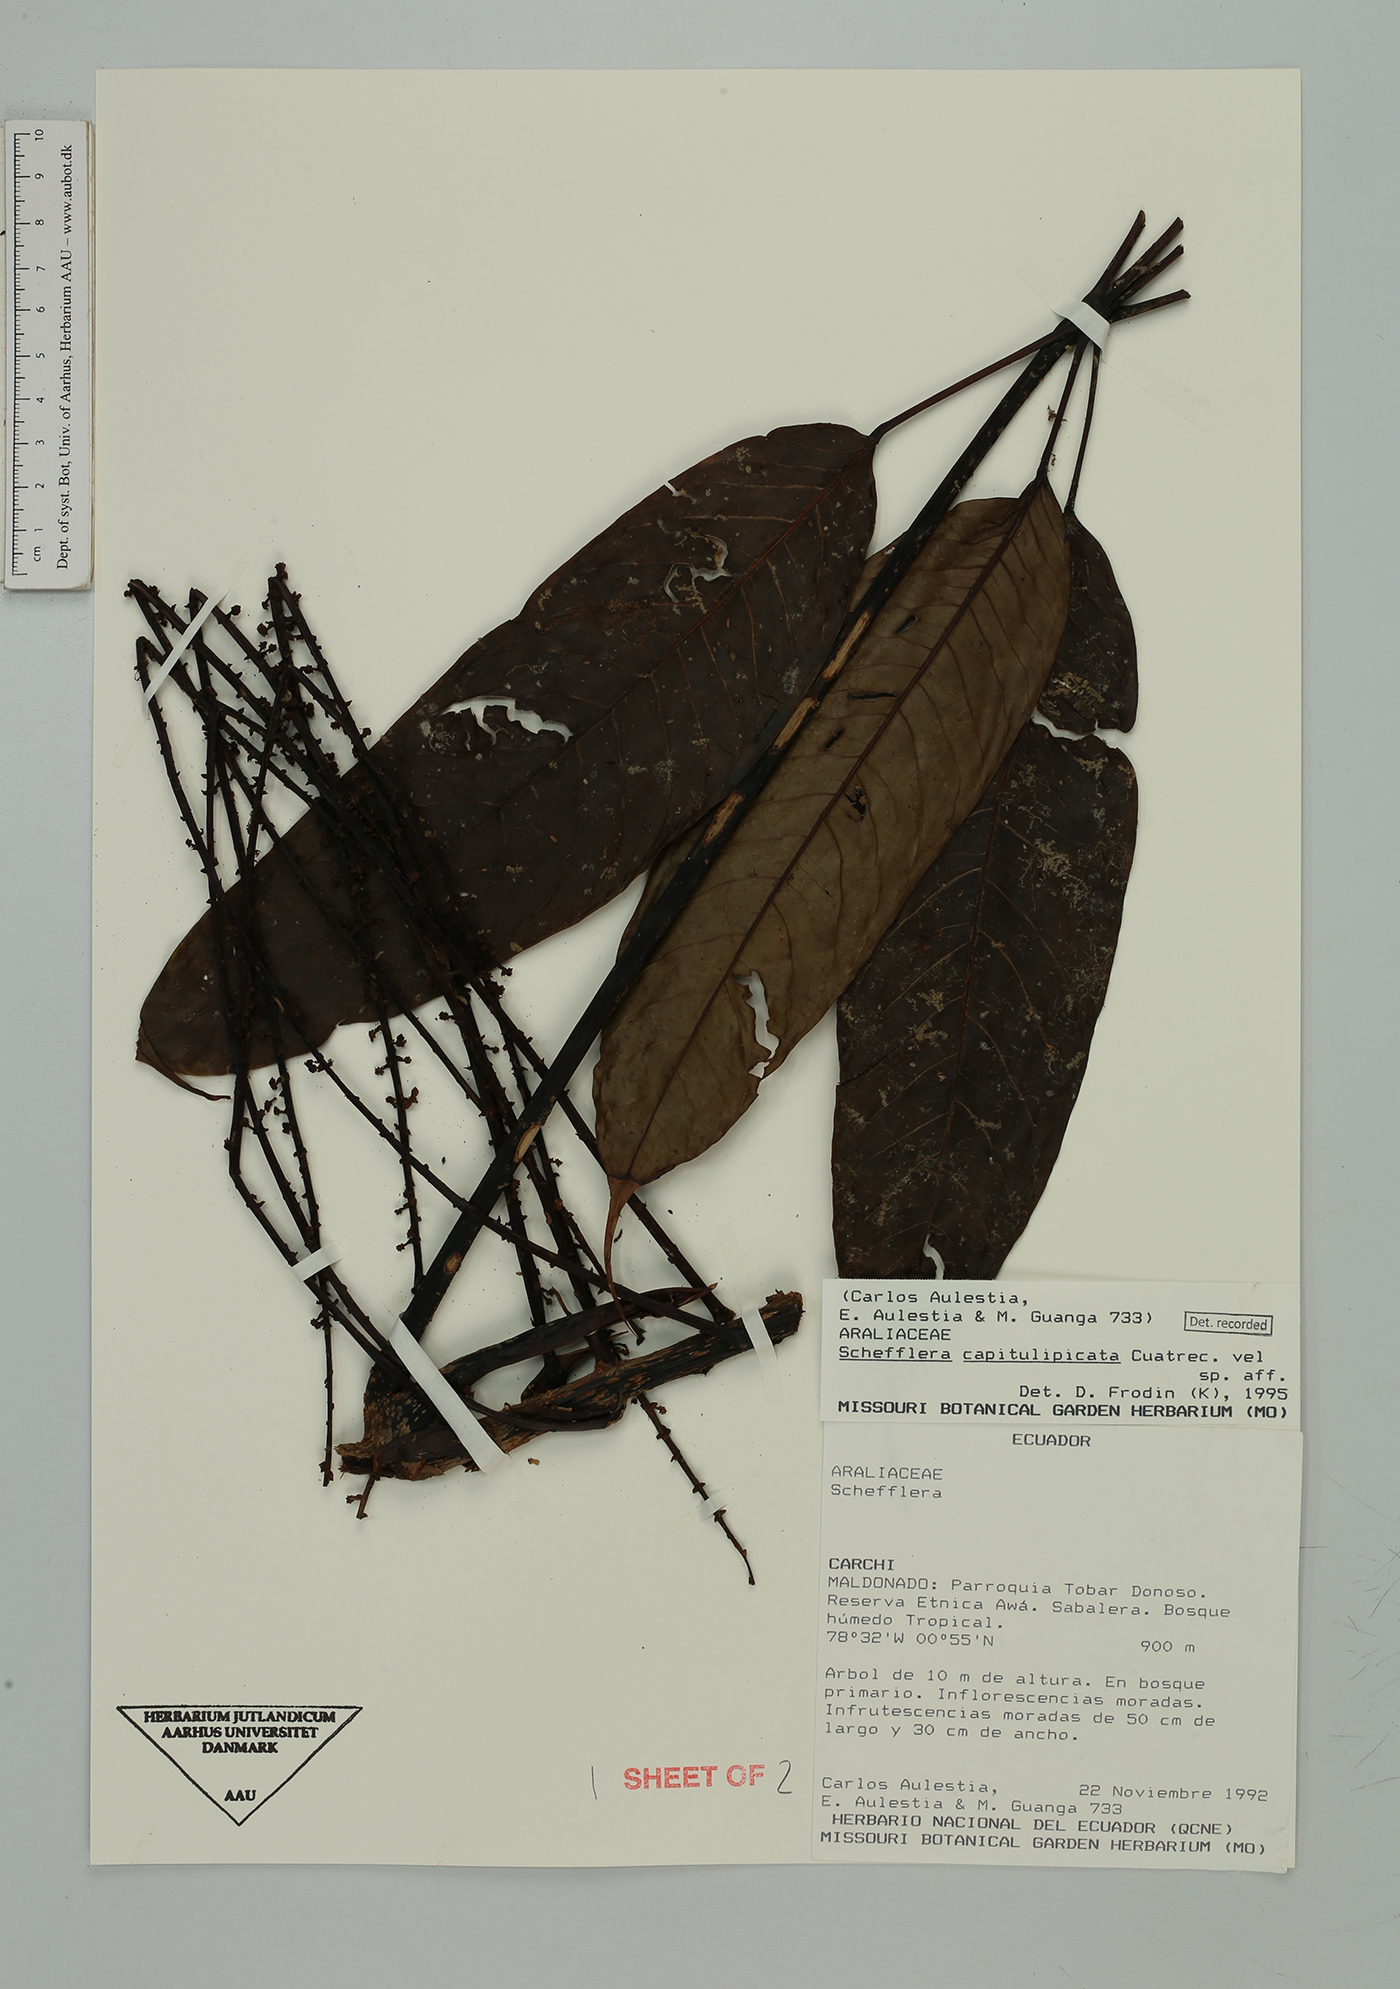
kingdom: Plantae
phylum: Tracheophyta
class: Magnoliopsida
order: Apiales
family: Araliaceae
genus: Sciodaphyllum
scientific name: Sciodaphyllum
